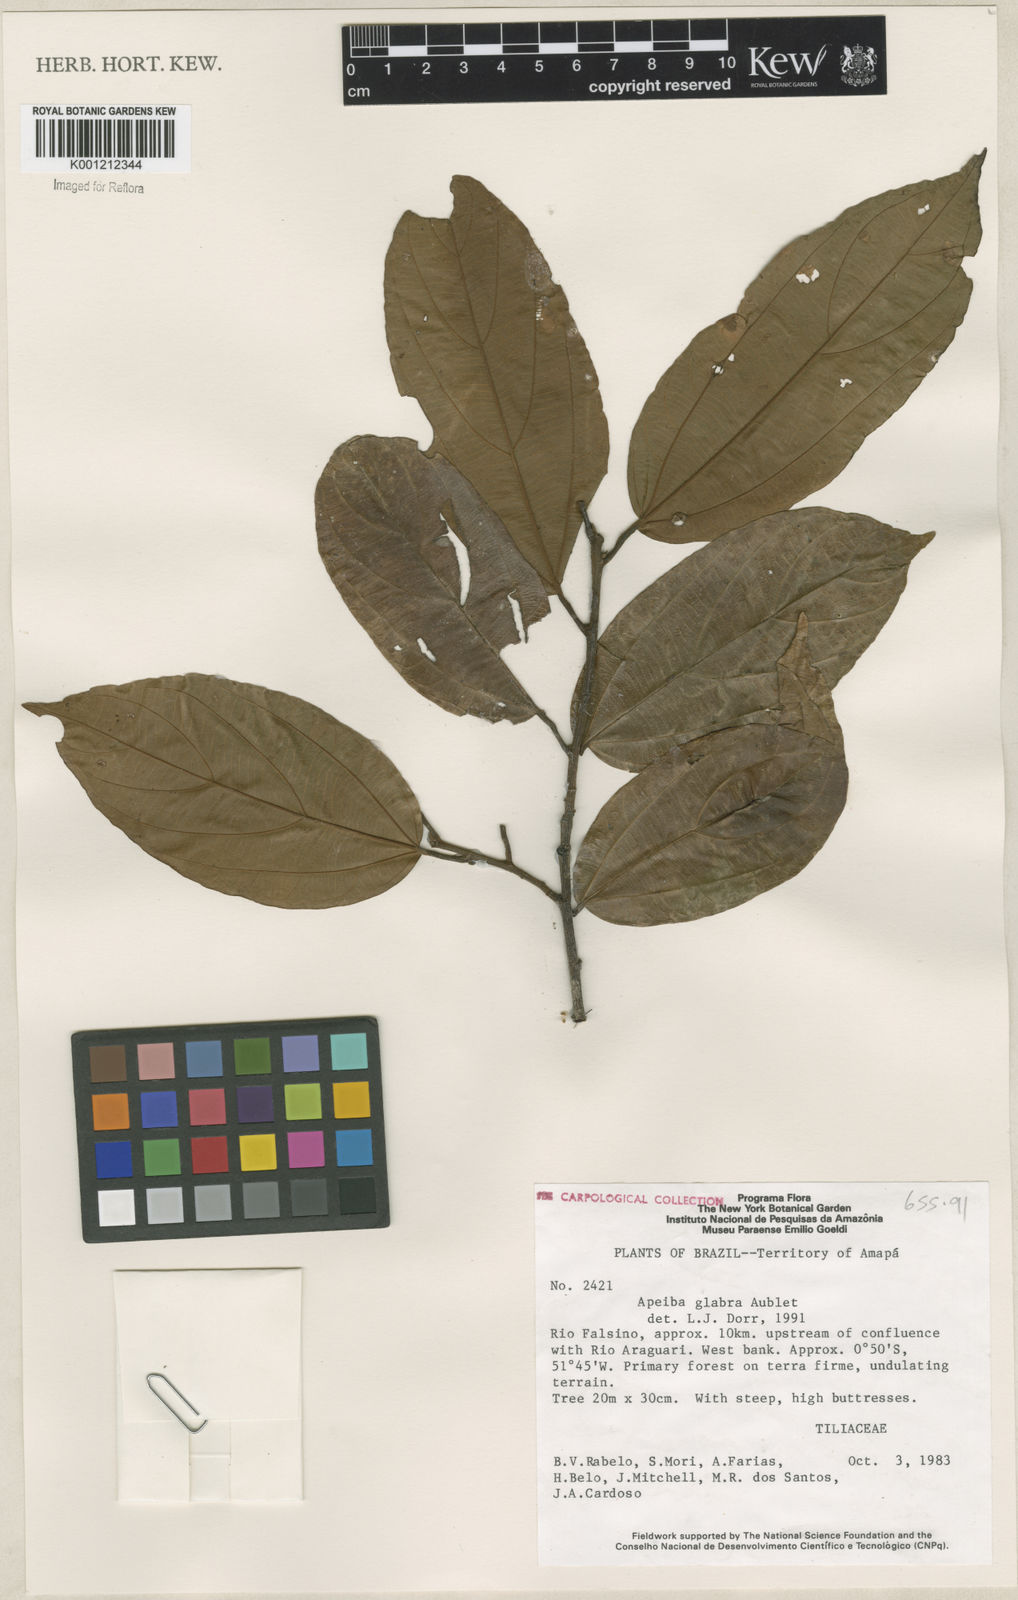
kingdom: Plantae
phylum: Tracheophyta
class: Magnoliopsida
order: Malvales
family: Malvaceae
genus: Apeiba
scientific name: Apeiba glabra
